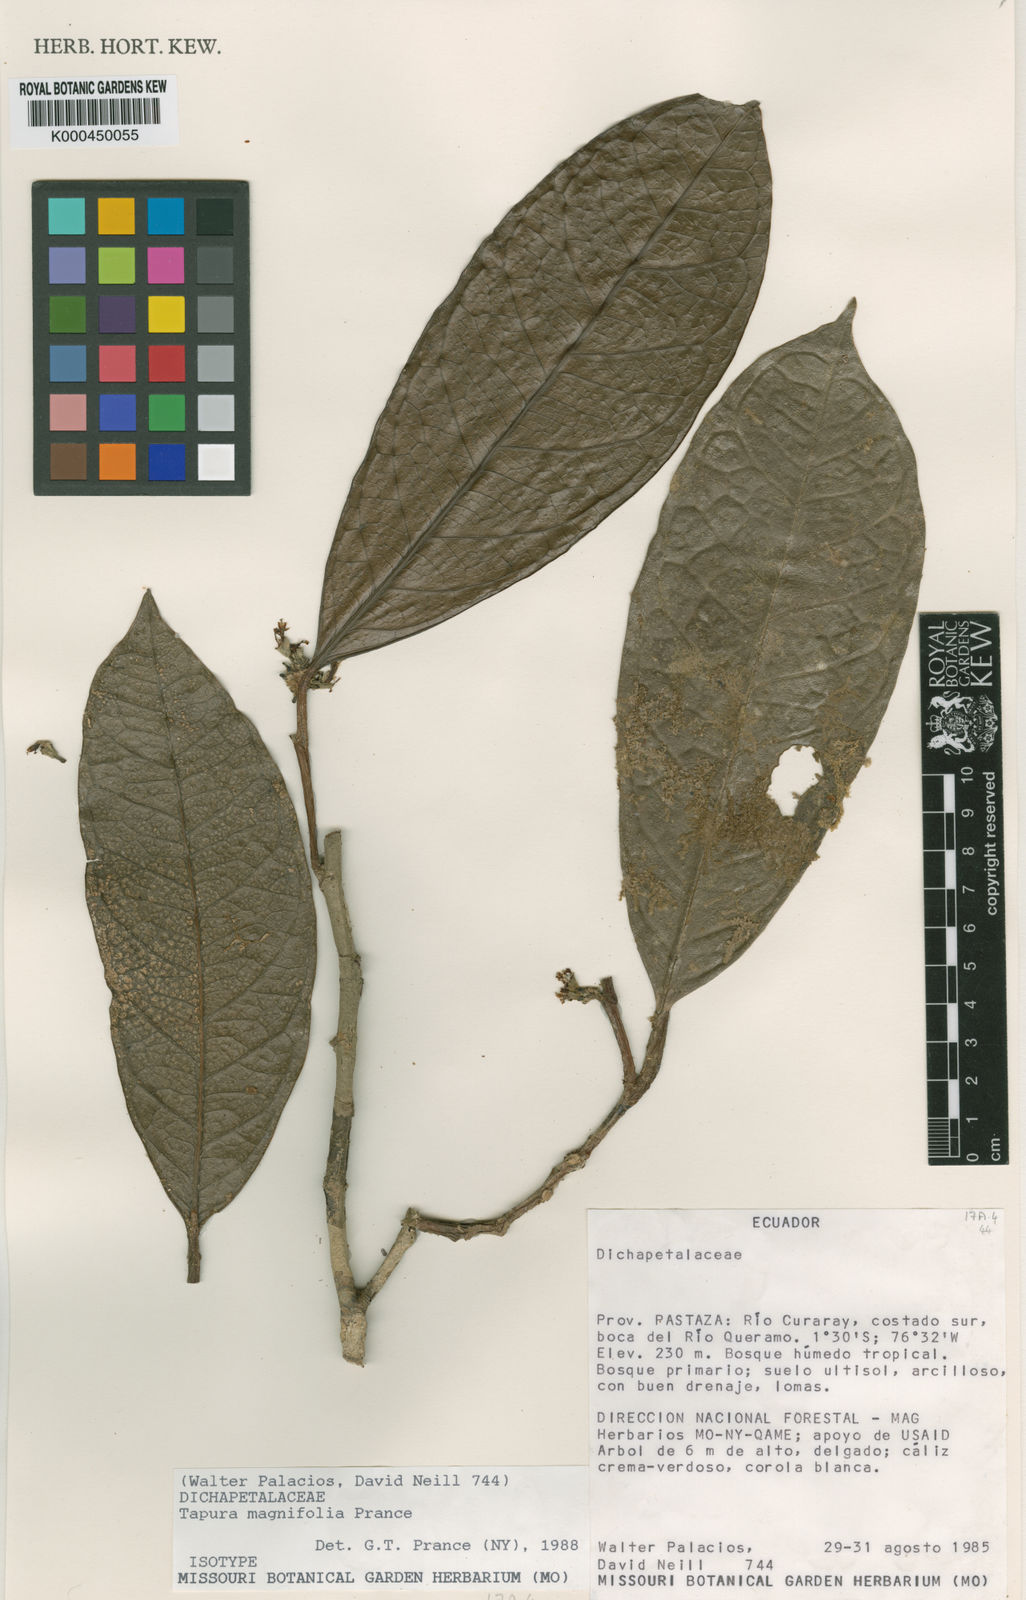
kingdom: Plantae
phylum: Tracheophyta
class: Magnoliopsida
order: Malpighiales
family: Dichapetalaceae
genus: Tapura
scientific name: Tapura magnifolia
